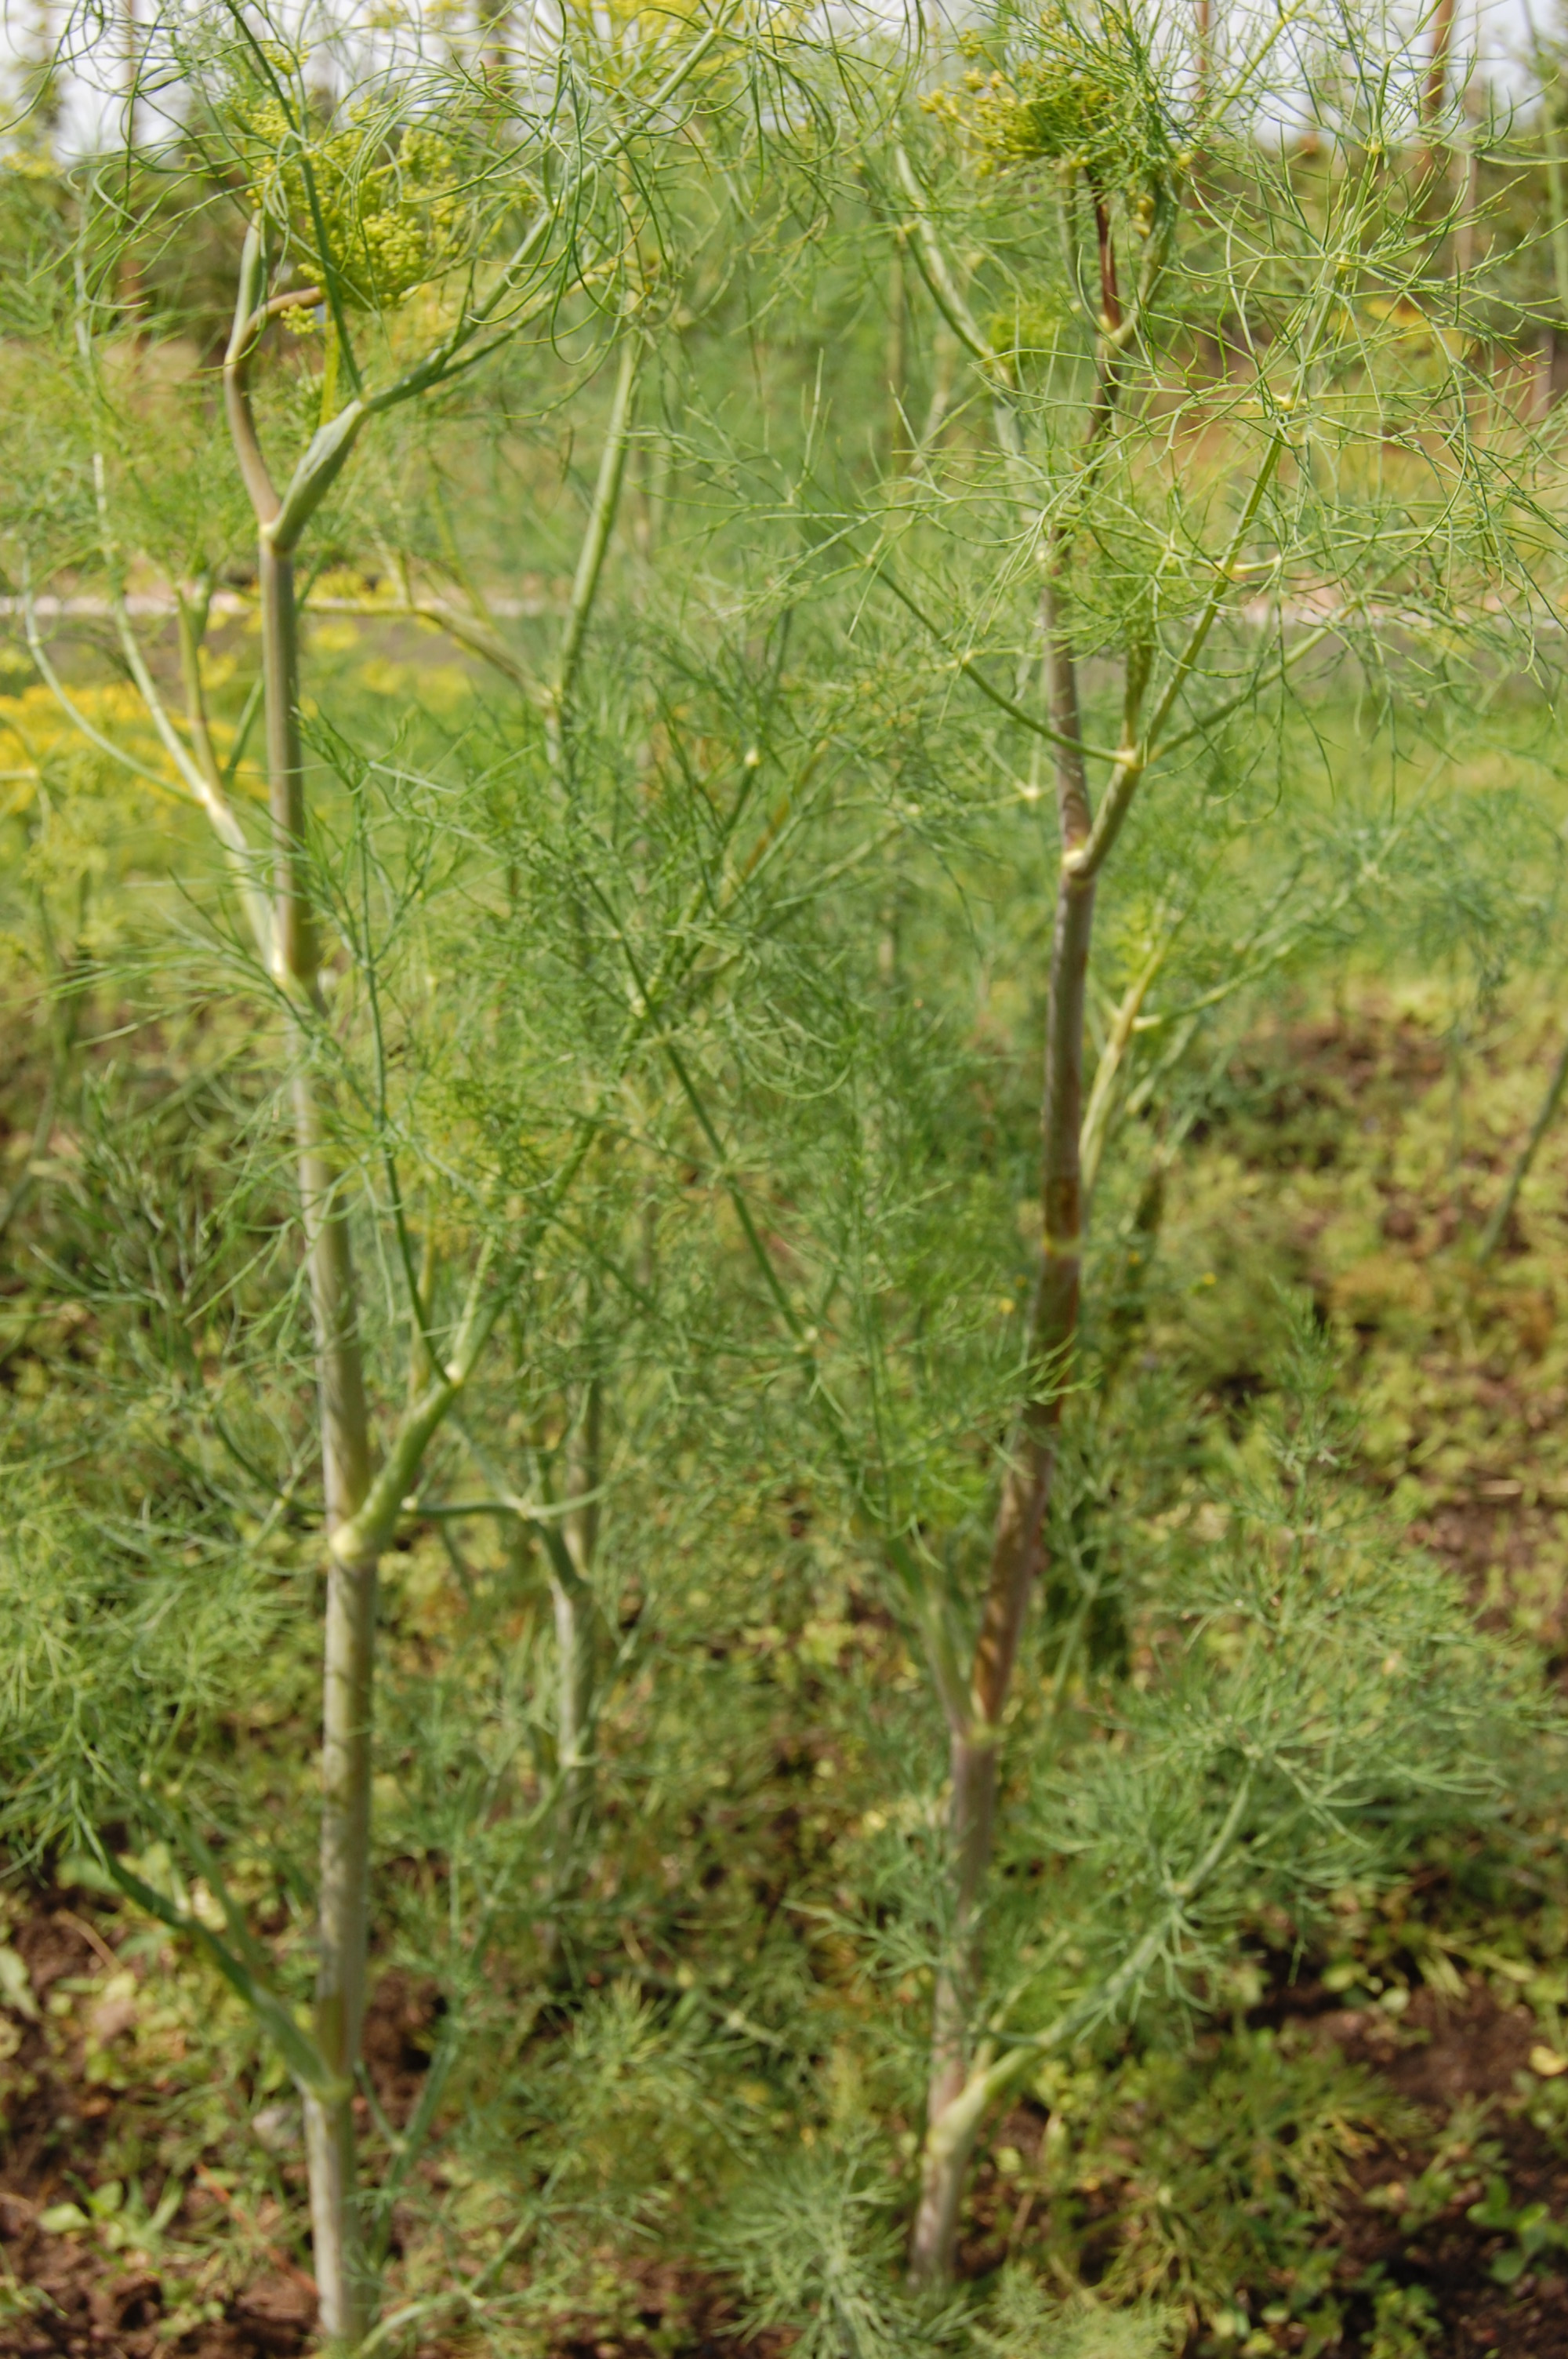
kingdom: Plantae
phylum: Tracheophyta
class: Magnoliopsida
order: Apiales
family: Apiaceae
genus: Anethum
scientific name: Anethum graveolens
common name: Dill
